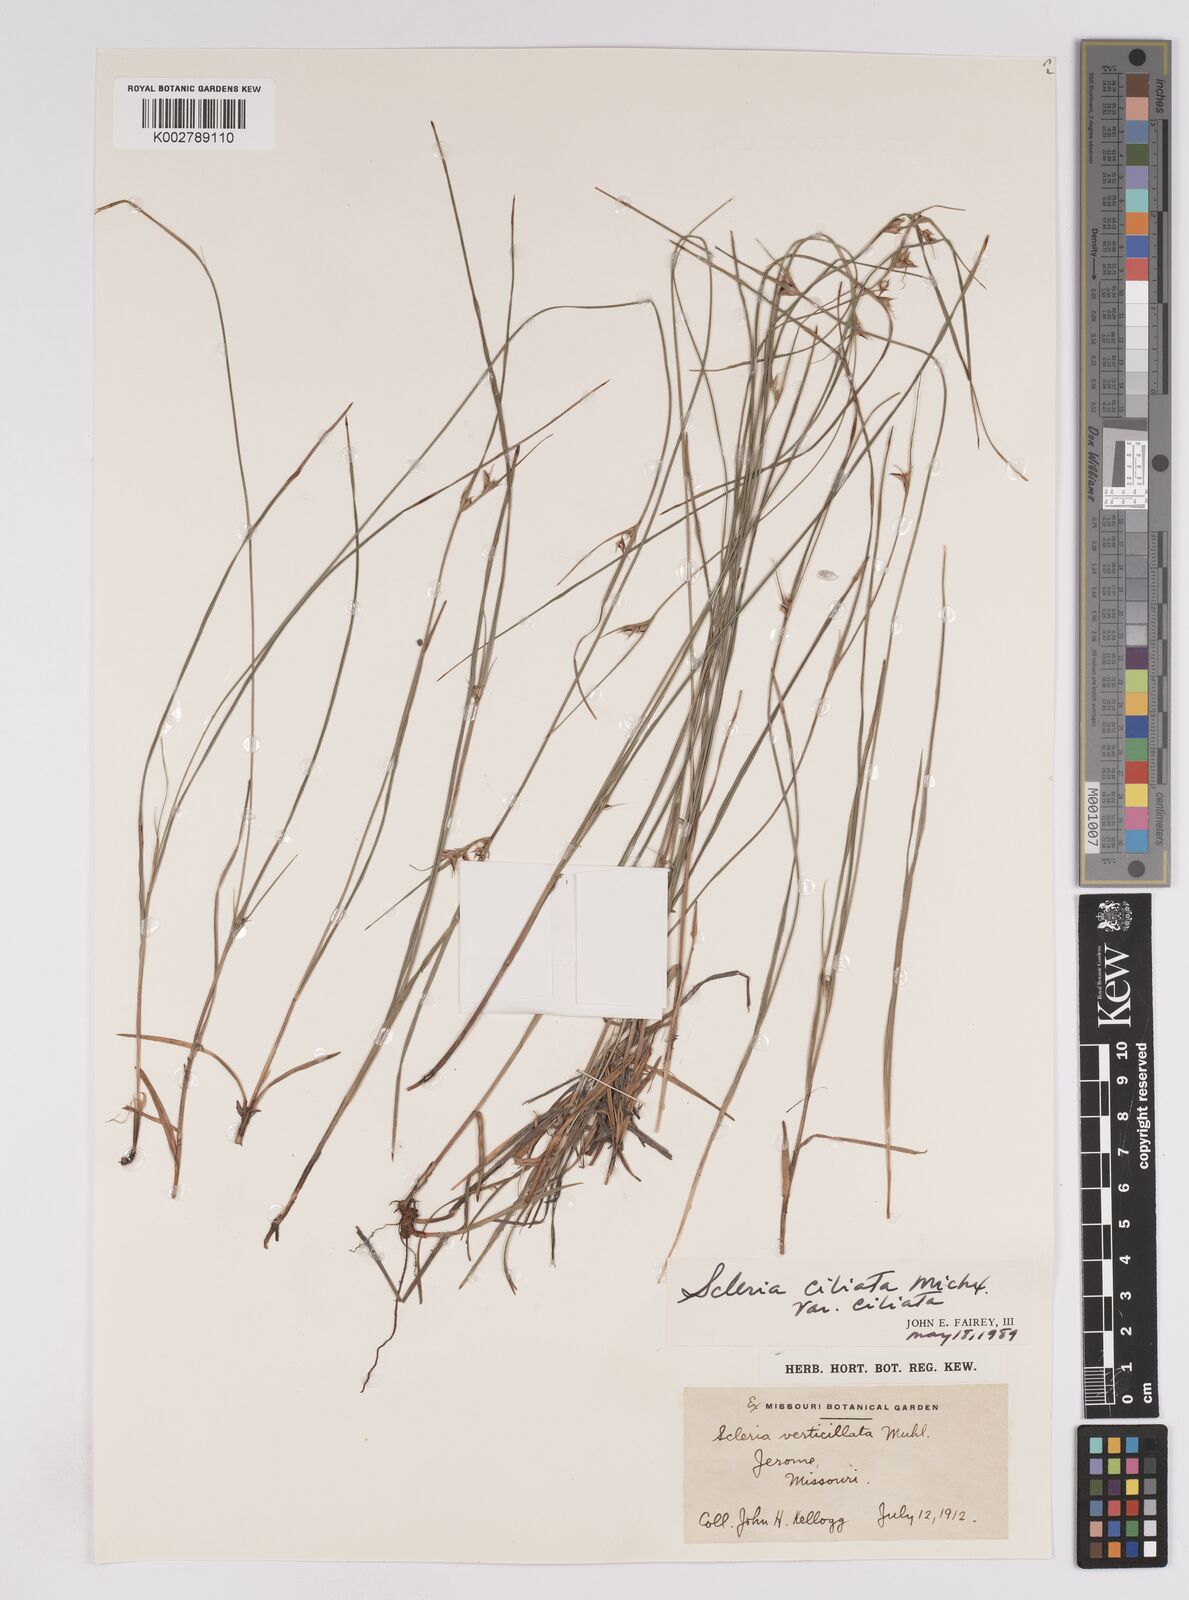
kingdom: Plantae
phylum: Tracheophyta
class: Liliopsida
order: Poales
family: Cyperaceae
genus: Scleria
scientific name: Scleria ciliata
